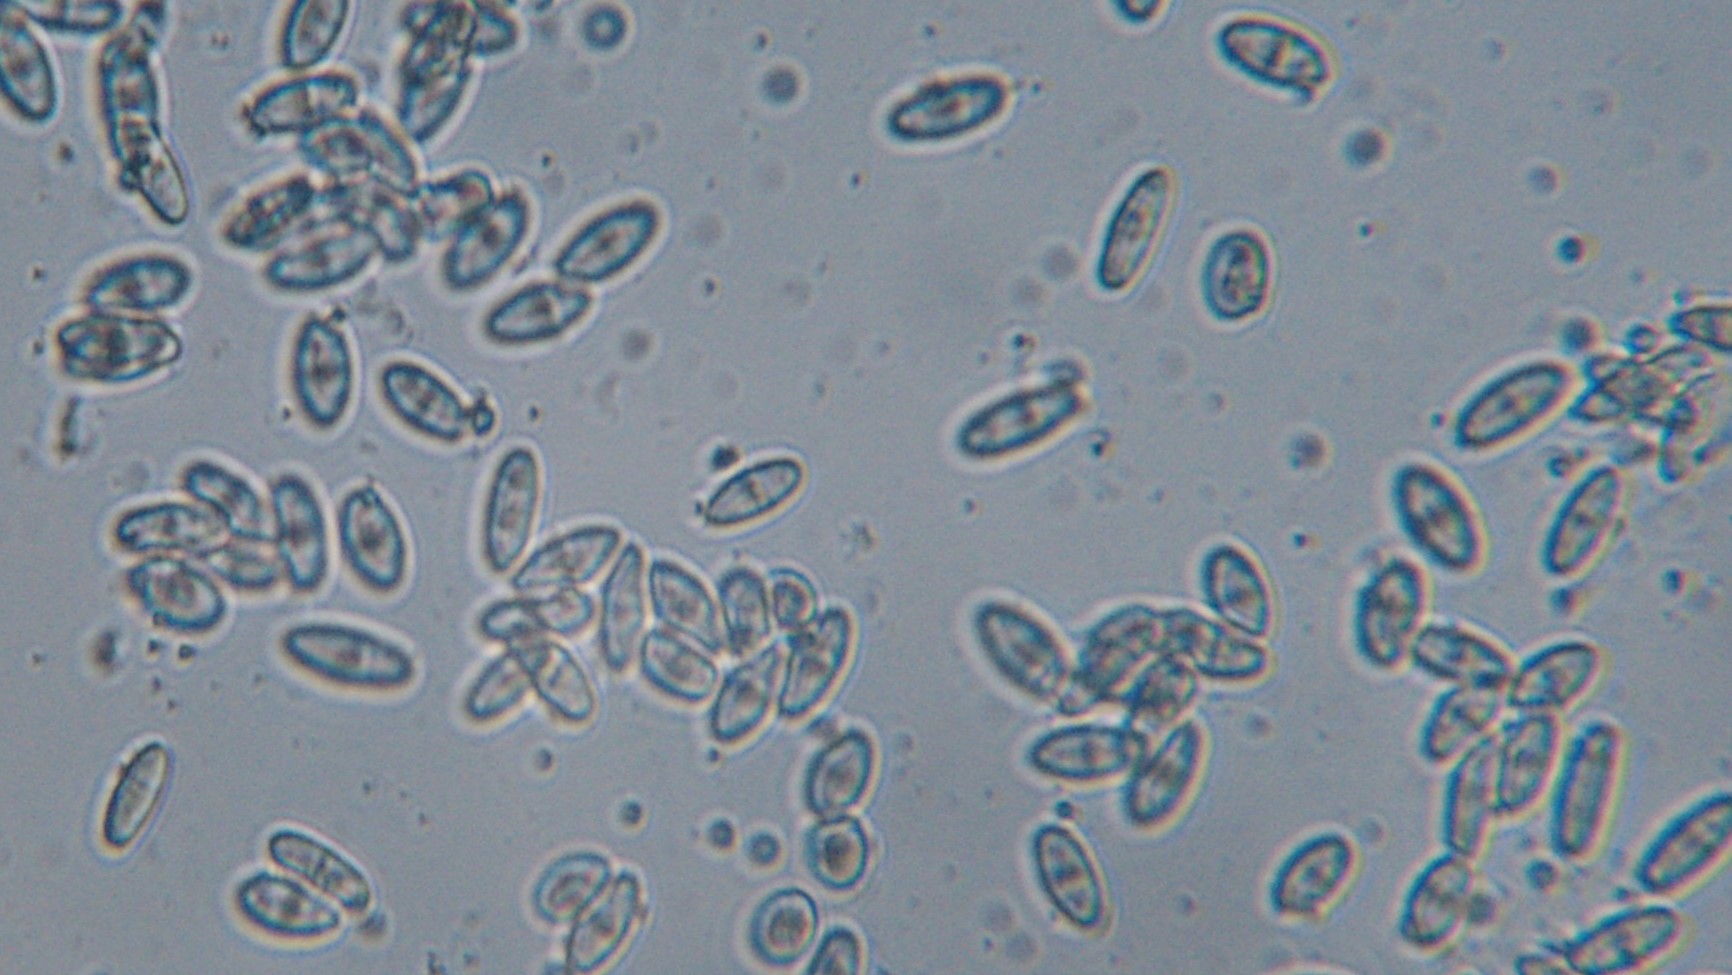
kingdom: Fungi
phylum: Ascomycota
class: Sordariomycetes
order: Diaporthales
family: Gnomoniaceae
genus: Plagiostoma
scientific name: Plagiostoma salicellum
